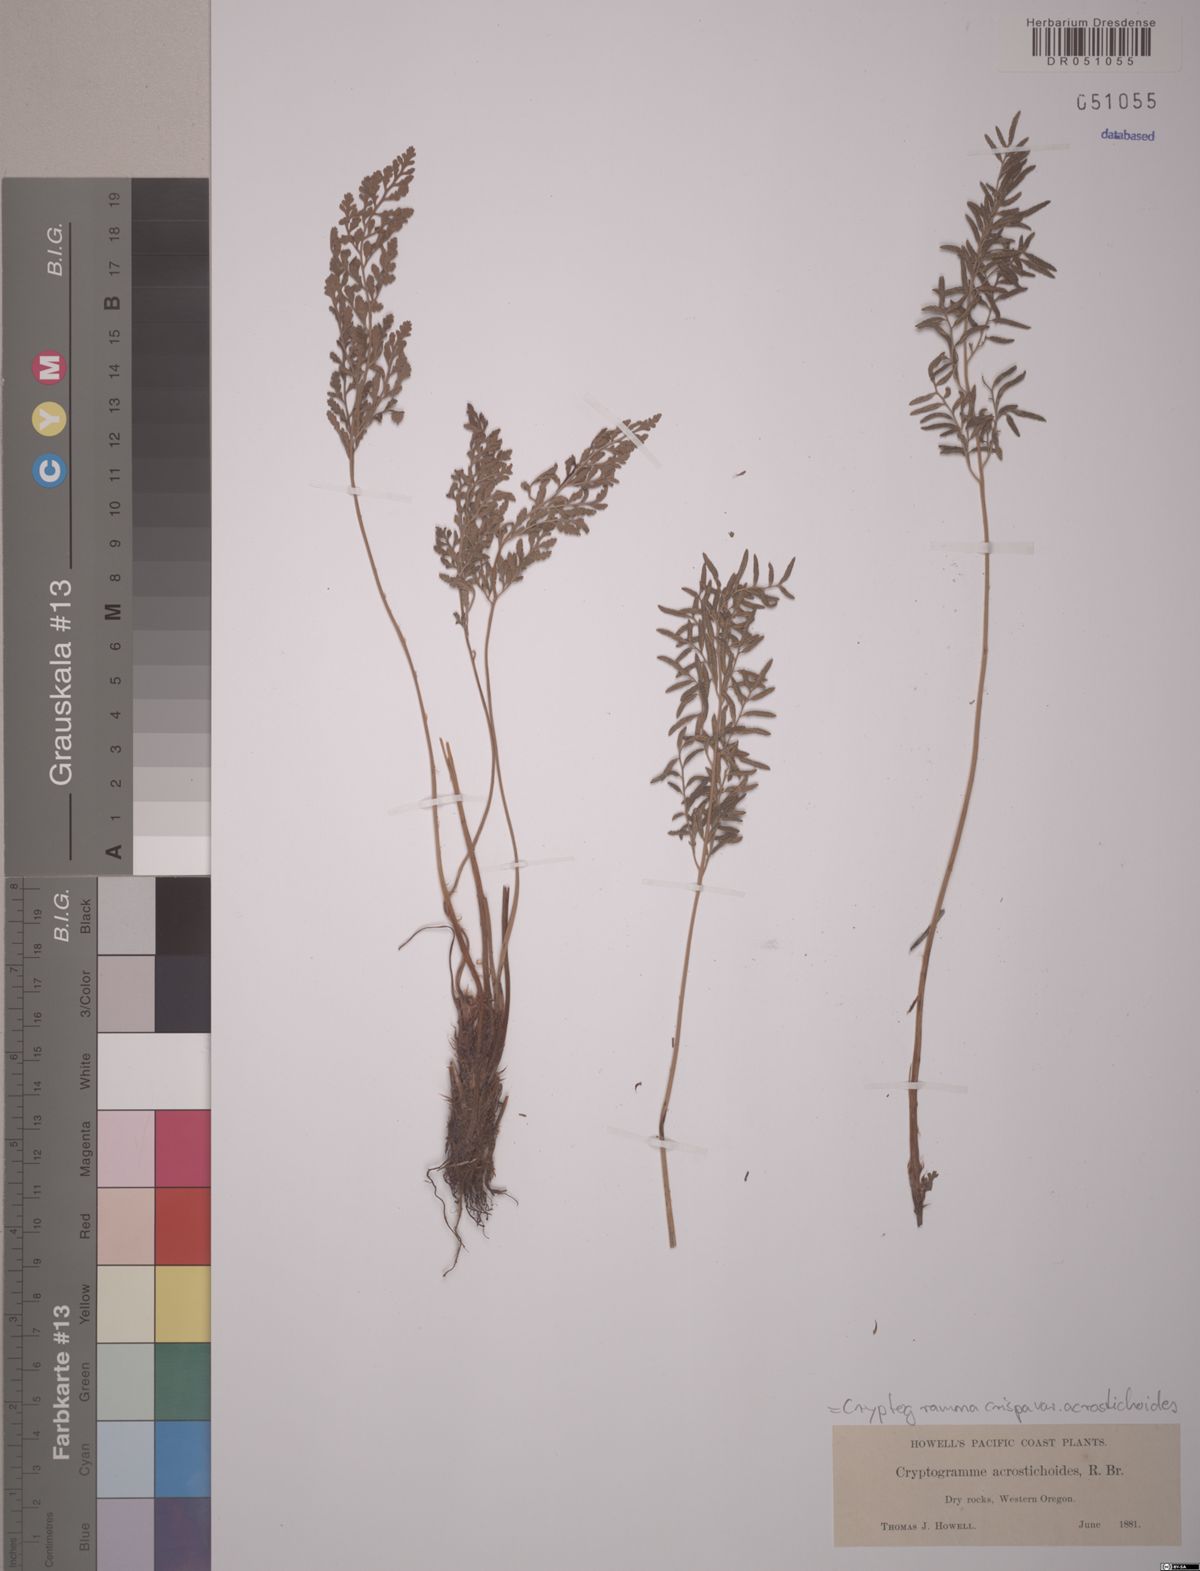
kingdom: Plantae
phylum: Tracheophyta
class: Polypodiopsida
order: Polypodiales
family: Pteridaceae
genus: Cryptogramma
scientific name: Cryptogramma acrostichoides
